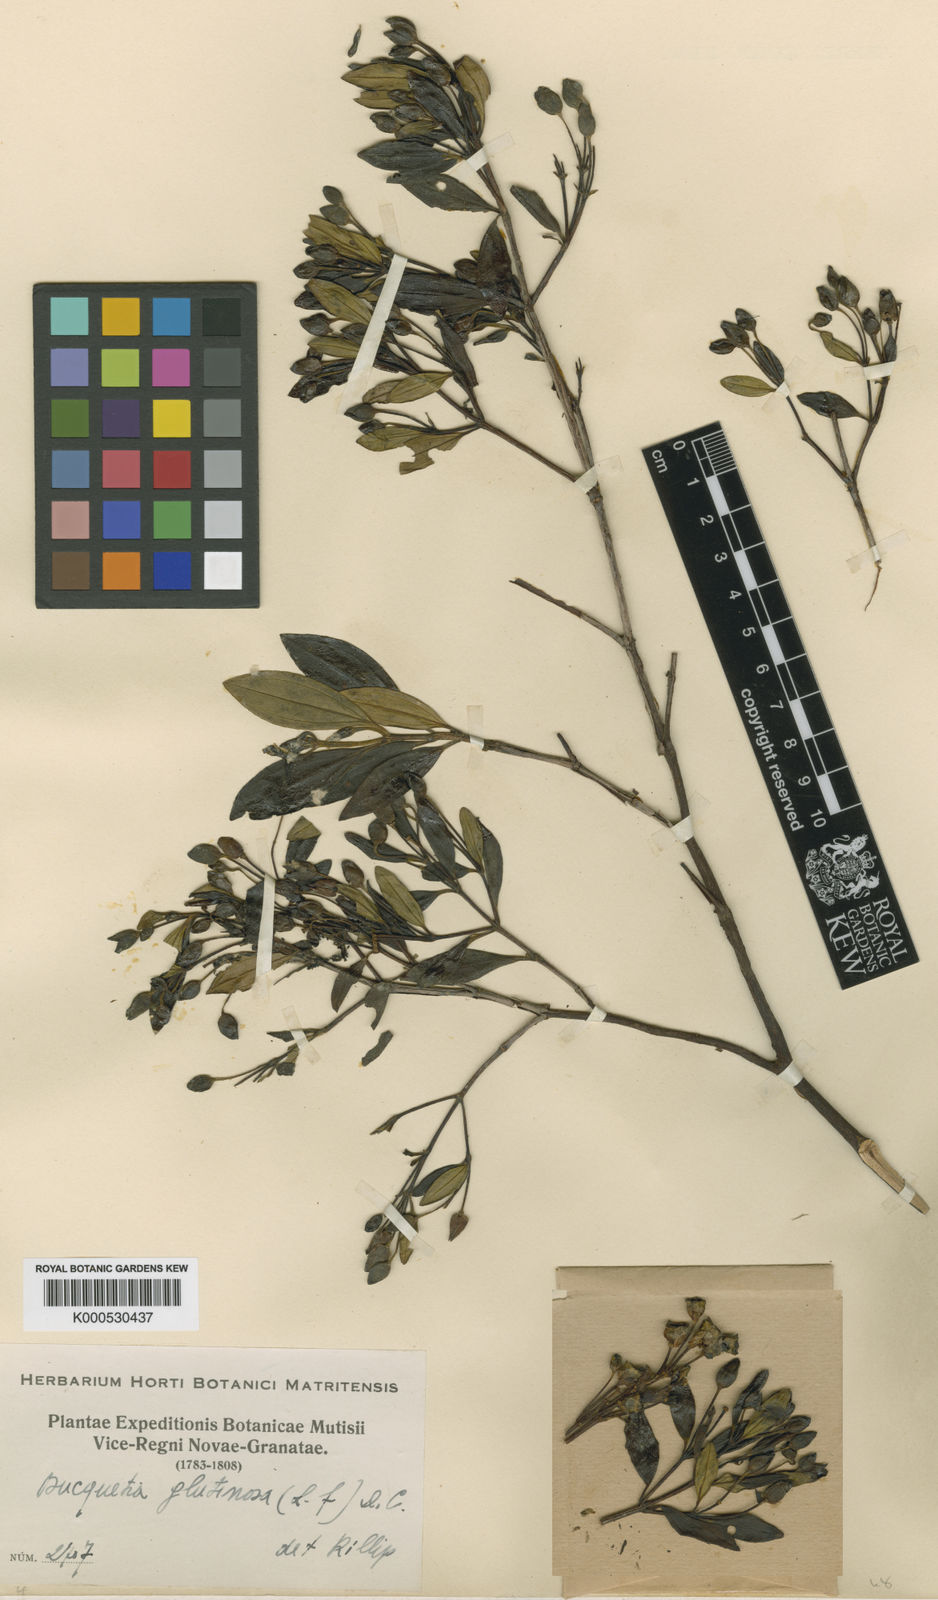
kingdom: Plantae
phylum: Tracheophyta
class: Magnoliopsida
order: Myrtales
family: Melastomataceae
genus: Bucquetia
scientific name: Bucquetia glutinosa
